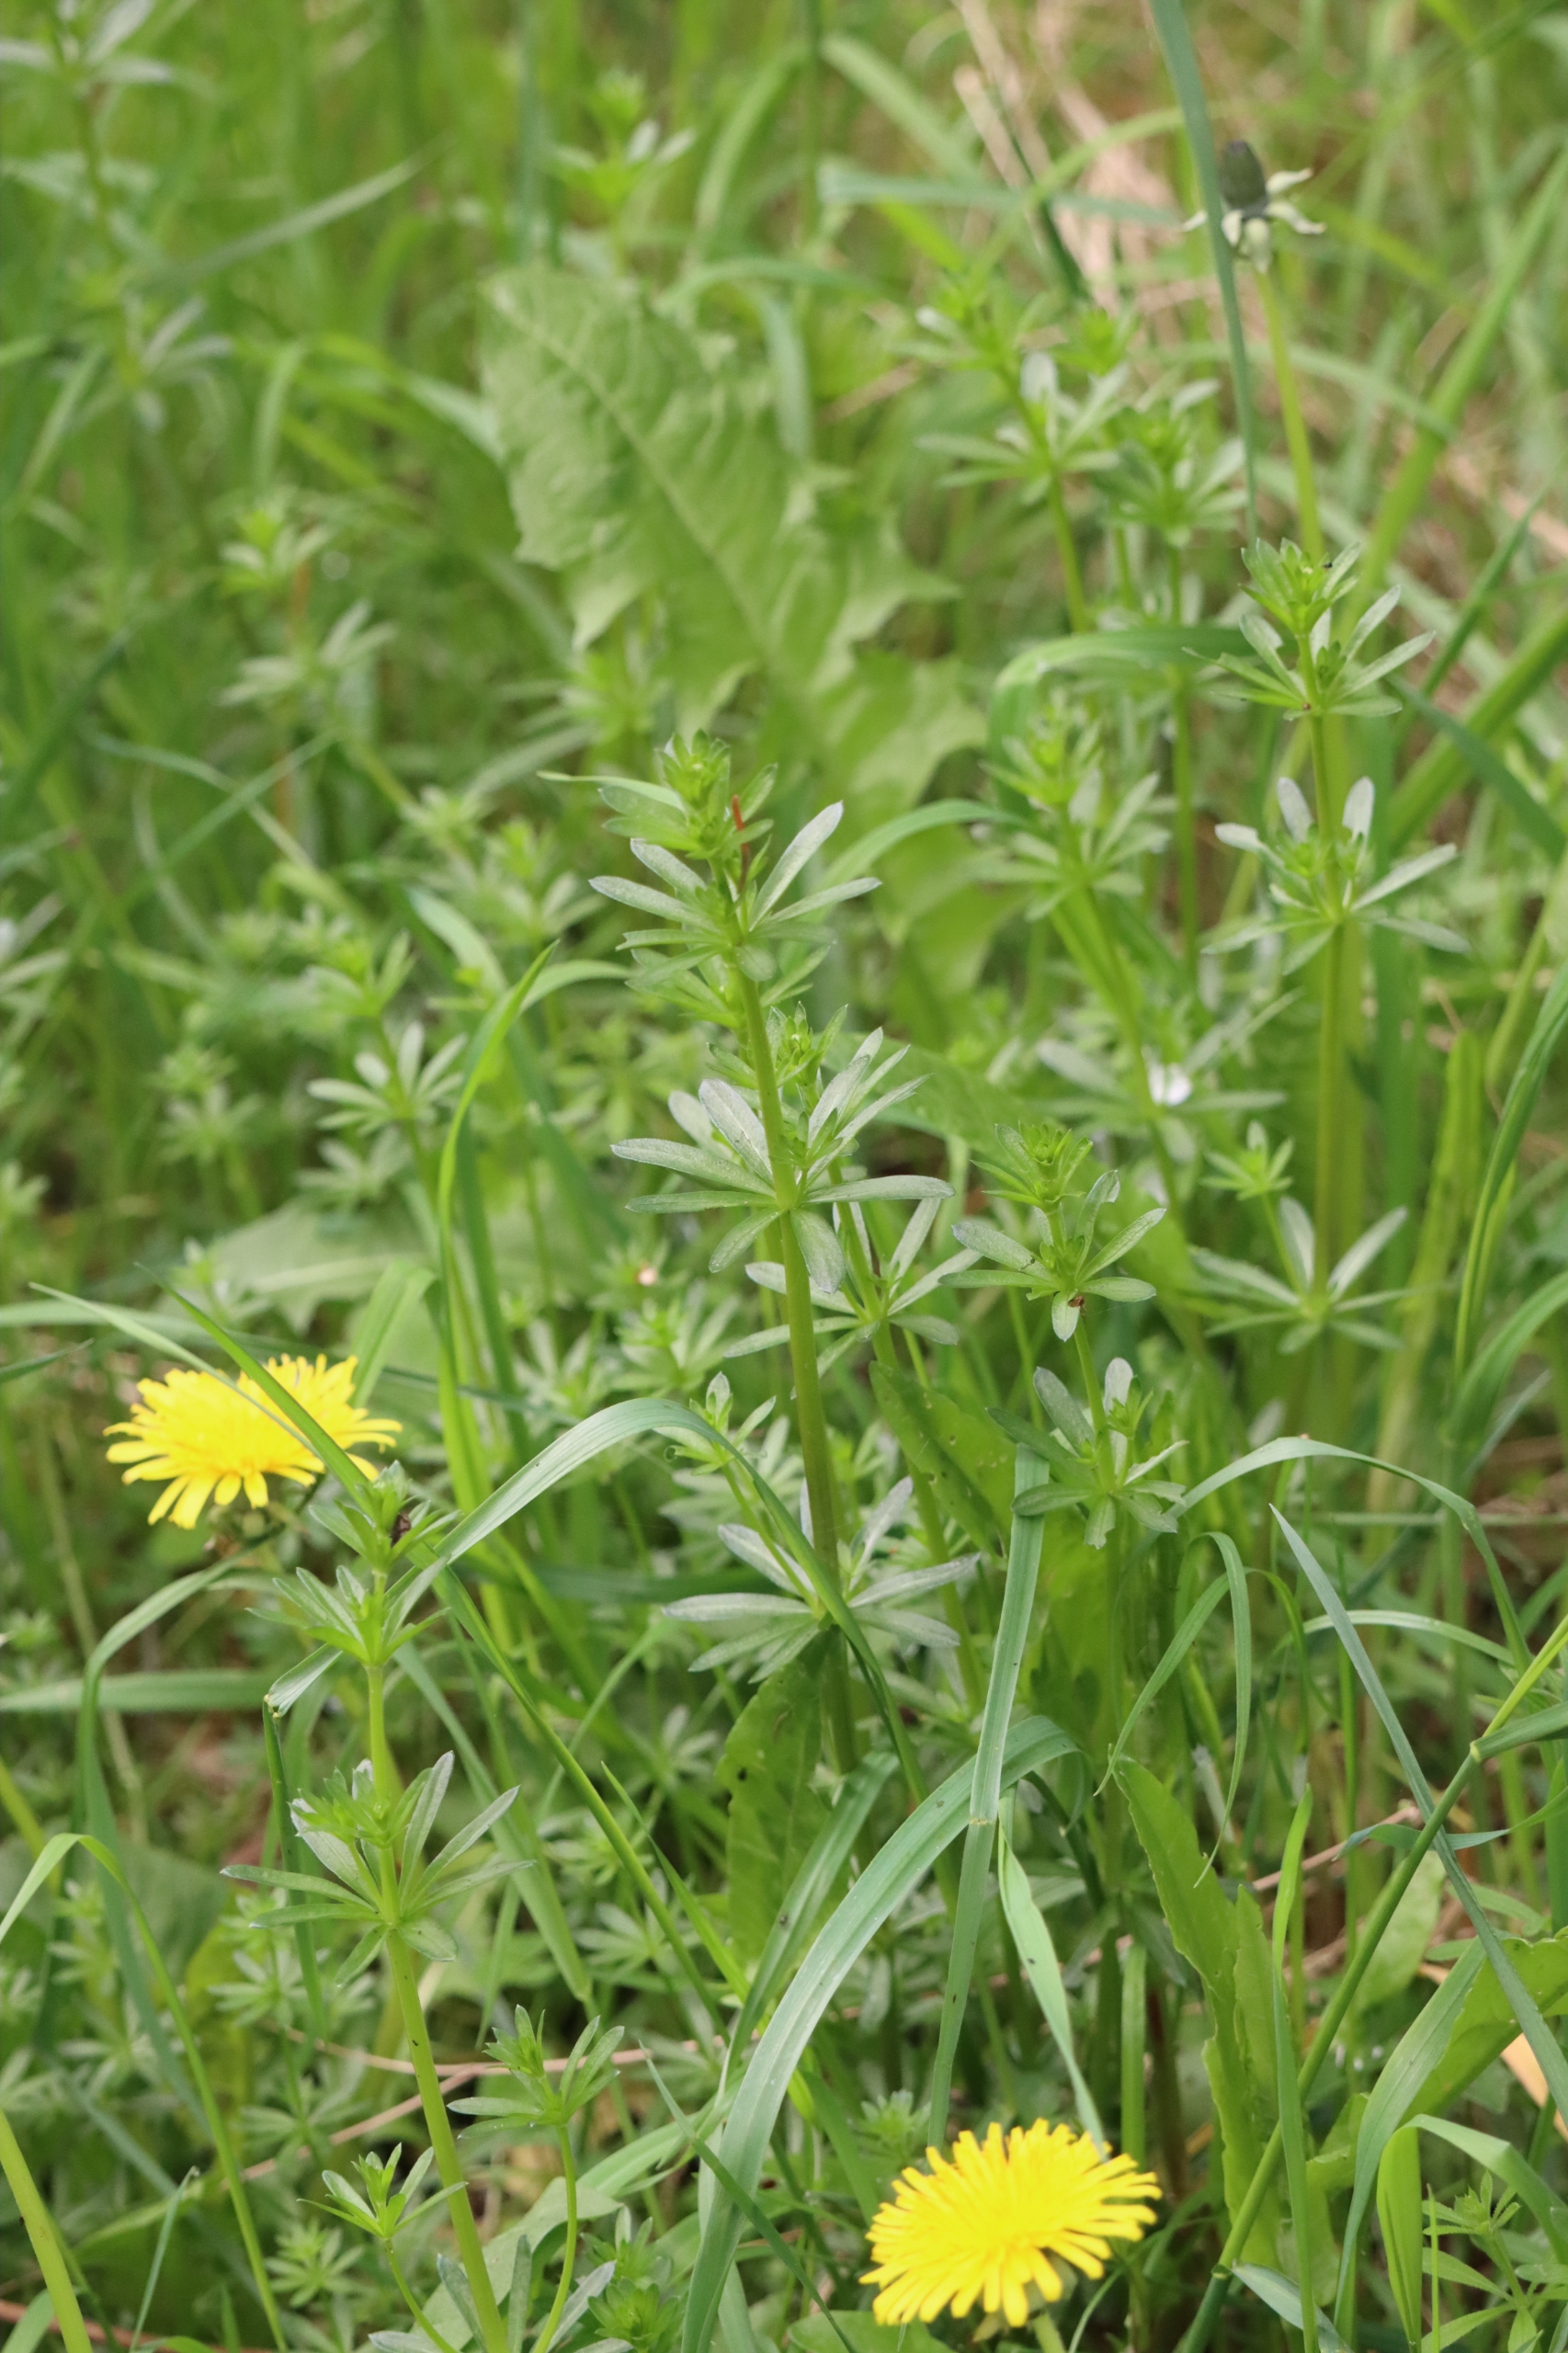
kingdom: Plantae
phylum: Tracheophyta
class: Magnoliopsida
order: Gentianales
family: Rubiaceae
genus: Galium
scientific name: Galium aparine
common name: Burre-snerre
